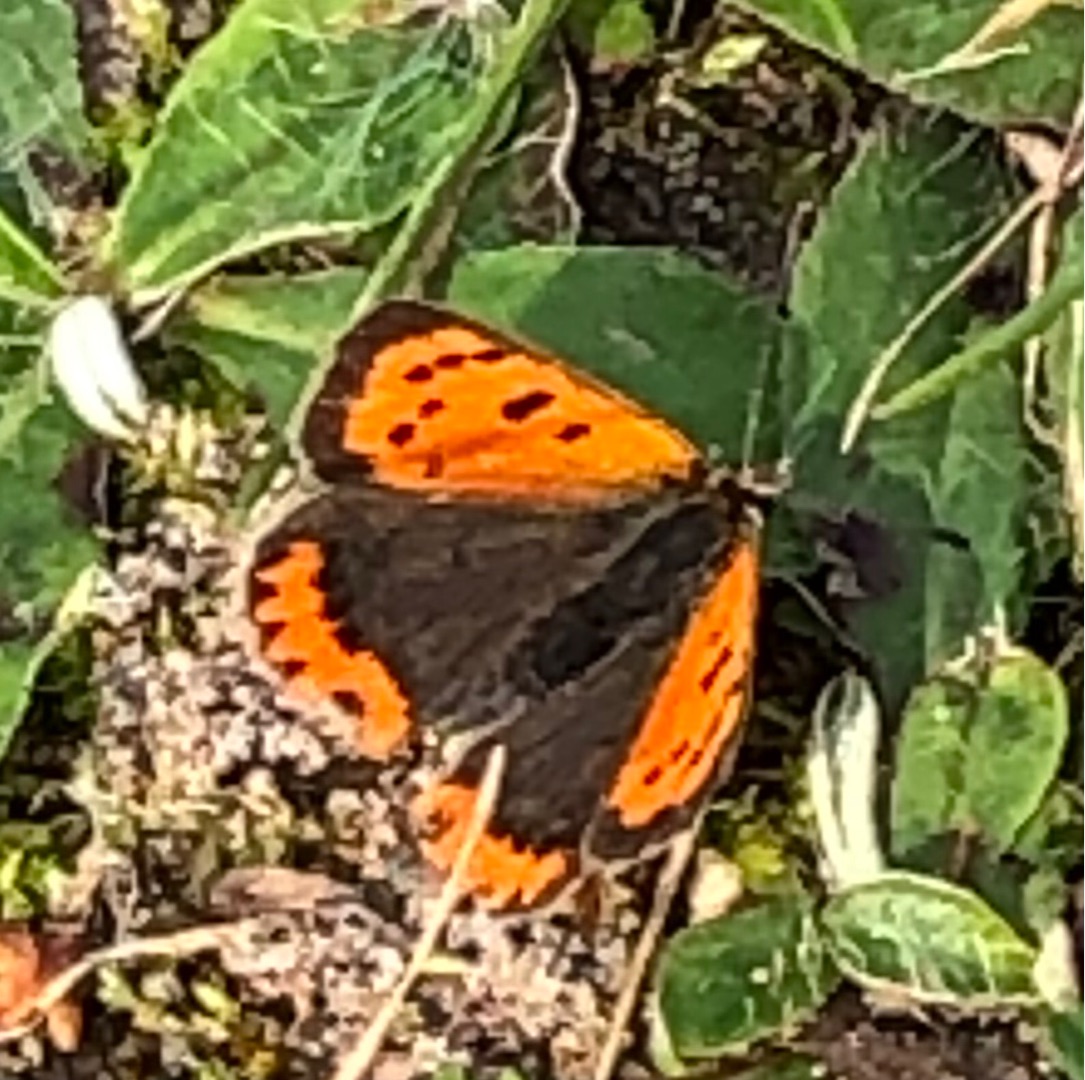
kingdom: Animalia
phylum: Arthropoda
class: Insecta
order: Lepidoptera
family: Lycaenidae
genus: Lycaena
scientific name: Lycaena phlaeas
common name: Lille ildfugl
